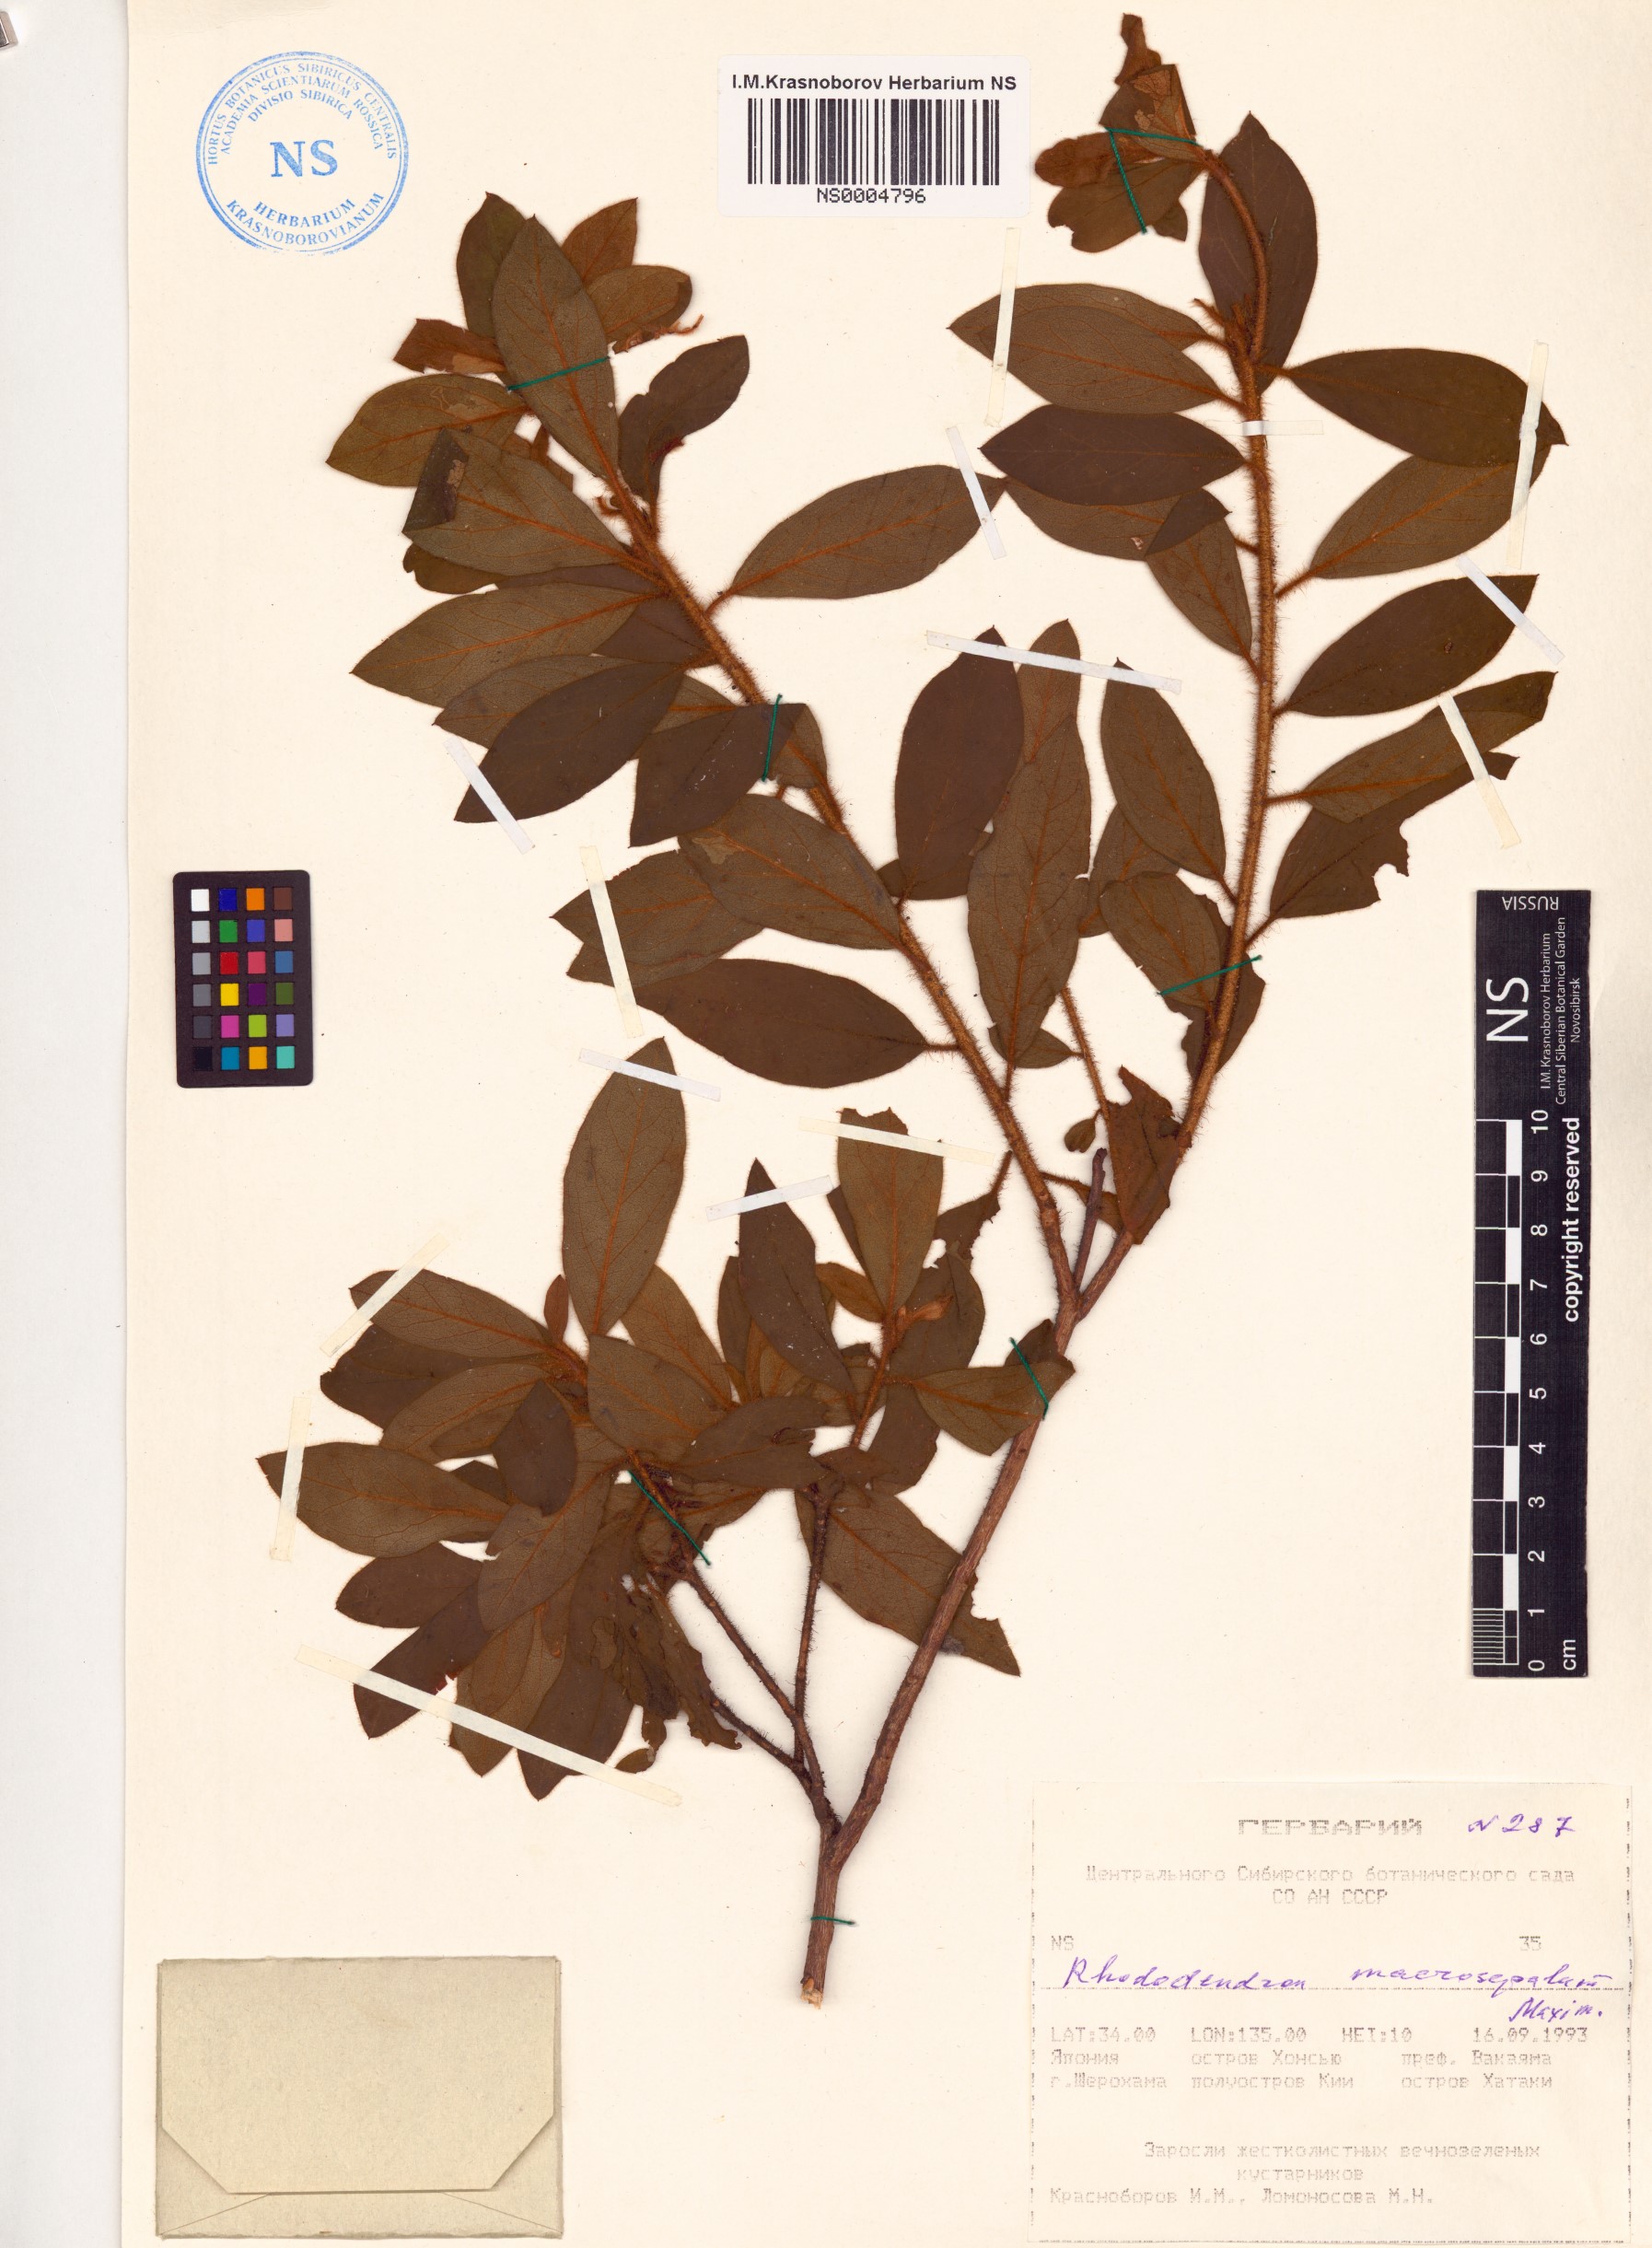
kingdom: Plantae
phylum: Tracheophyta
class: Magnoliopsida
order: Ericales
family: Ericaceae
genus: Rhododendron
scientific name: Rhododendron stenopetalum
